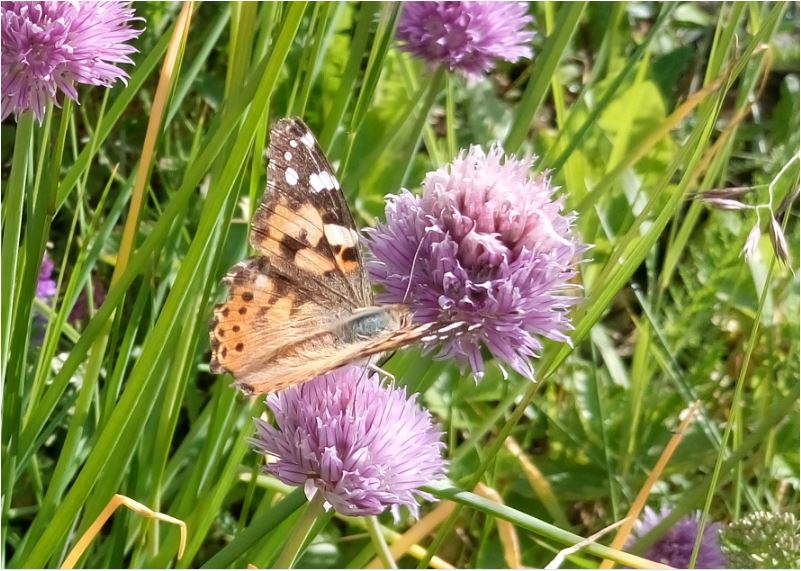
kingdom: Animalia
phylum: Arthropoda
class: Insecta
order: Lepidoptera
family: Nymphalidae
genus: Vanessa
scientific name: Vanessa cardui
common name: Painted lady
